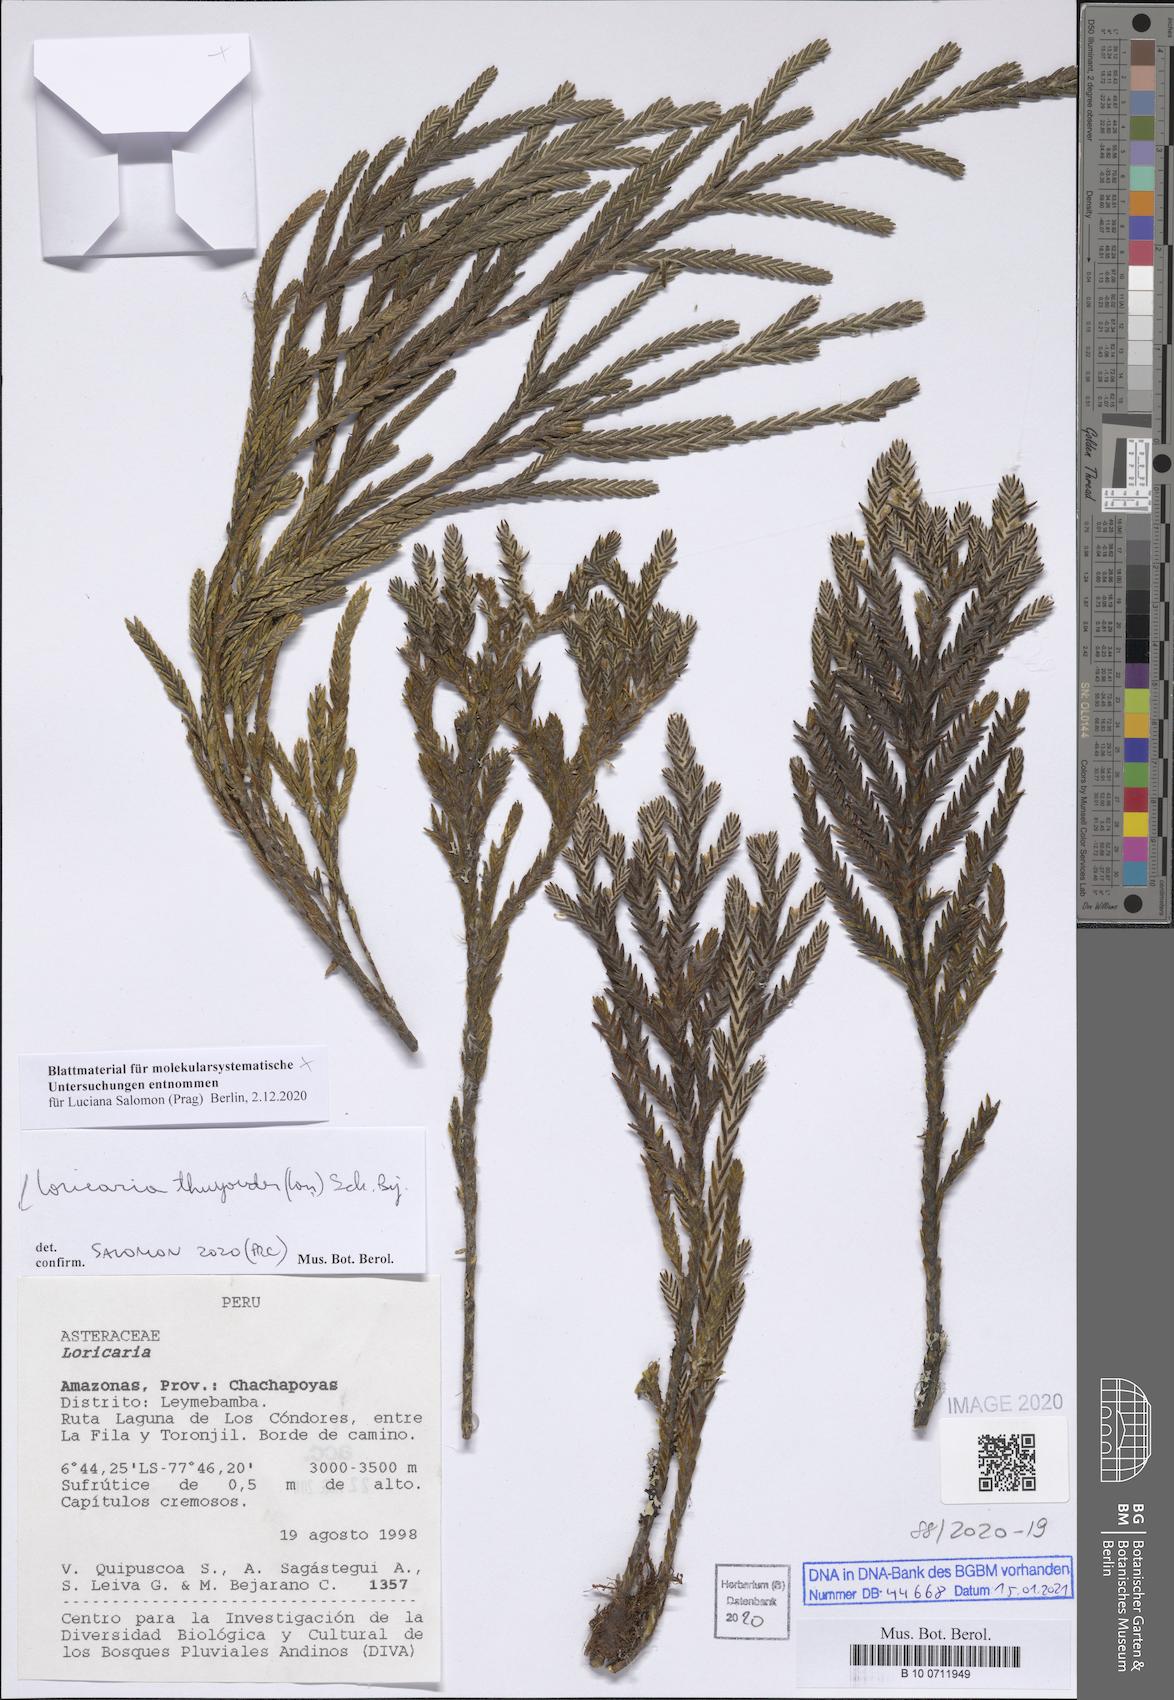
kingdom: Plantae
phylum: Tracheophyta
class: Magnoliopsida
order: Asterales
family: Asteraceae
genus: Andicolea
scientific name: Andicolea thuyoides
